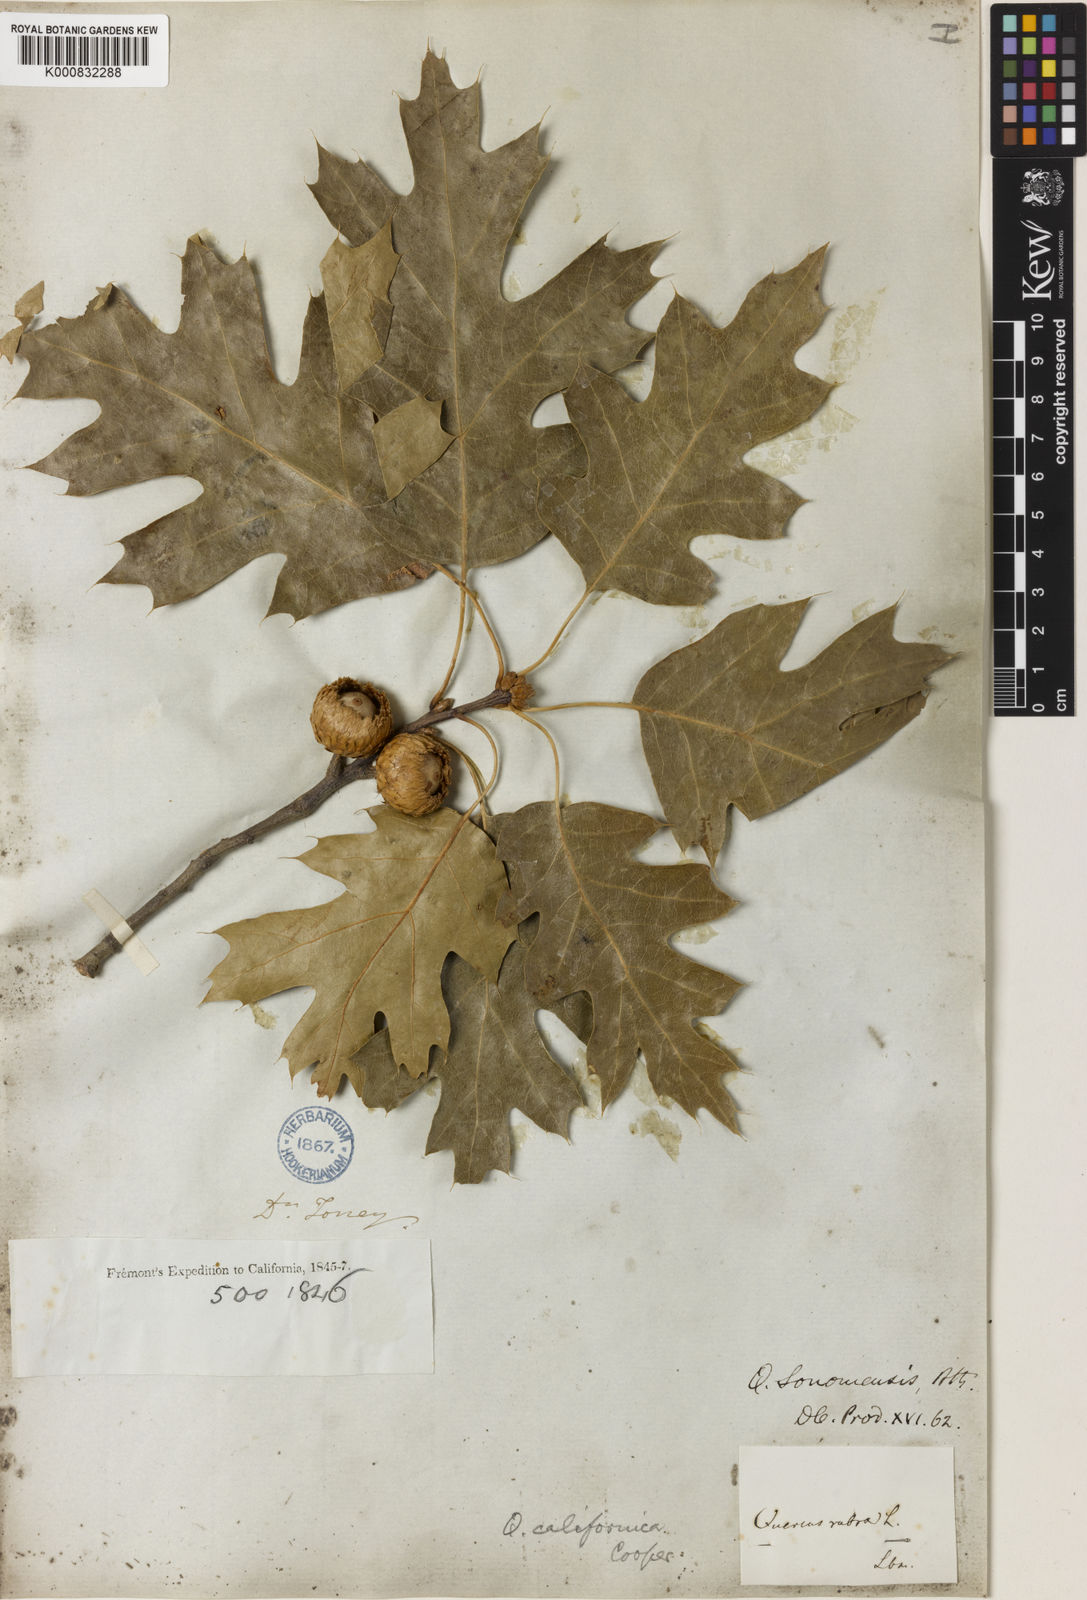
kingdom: Plantae
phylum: Tracheophyta
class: Magnoliopsida
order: Fagales
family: Fagaceae
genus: Quercus
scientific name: Quercus kelloggii
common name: California black oak
